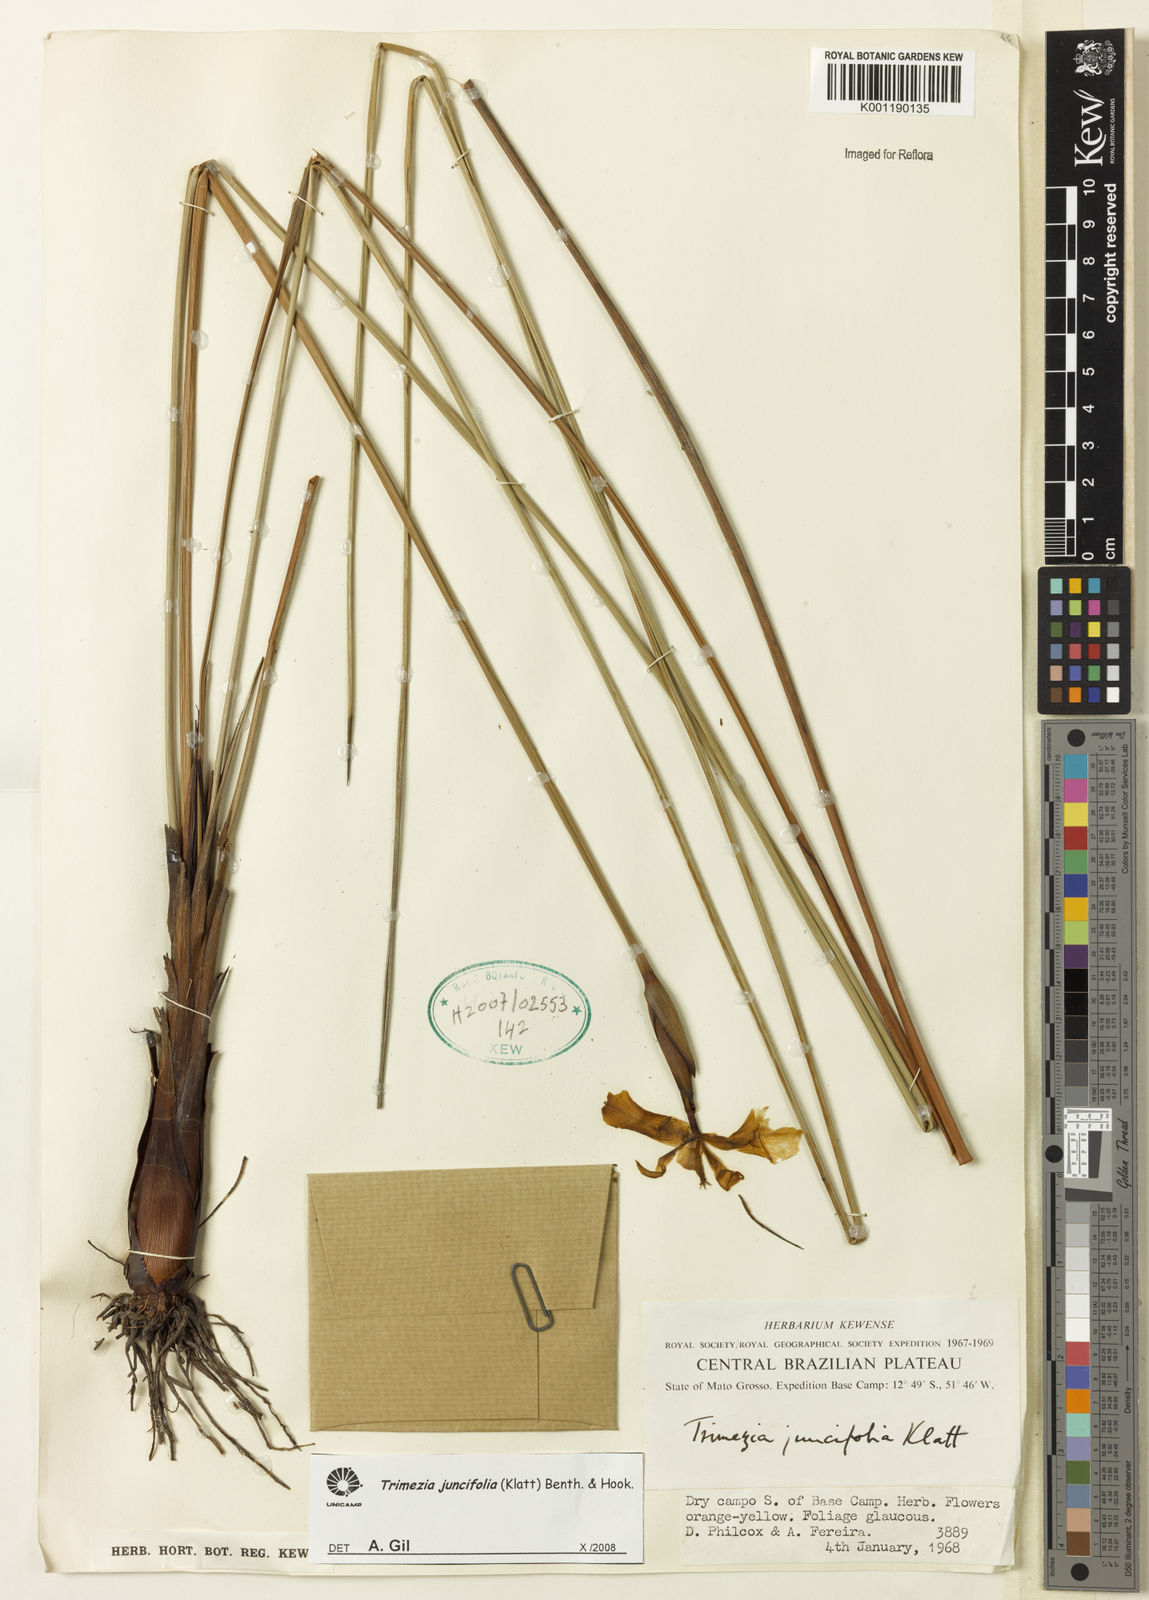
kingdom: Plantae
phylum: Tracheophyta
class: Liliopsida
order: Asparagales
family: Iridaceae
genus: Trimezia
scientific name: Trimezia juncifolia
